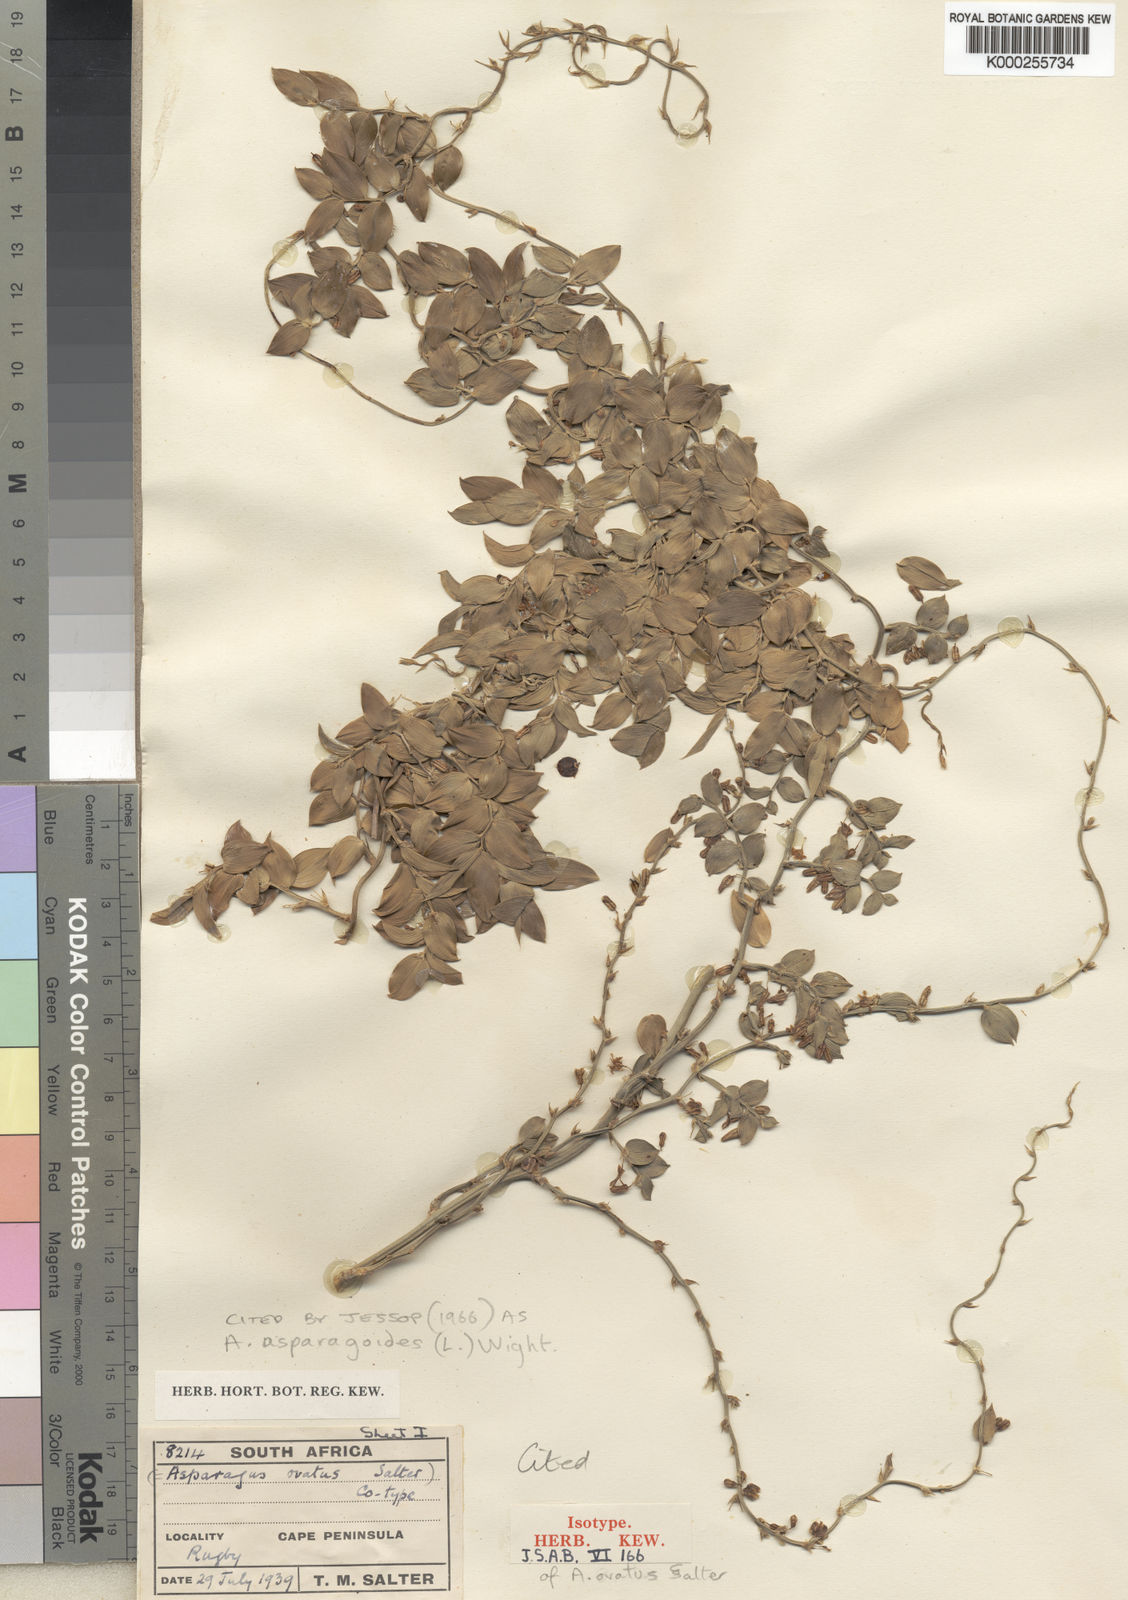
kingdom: Plantae
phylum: Tracheophyta
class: Liliopsida
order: Asparagales
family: Asparagaceae
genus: Asparagus
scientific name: Asparagus
